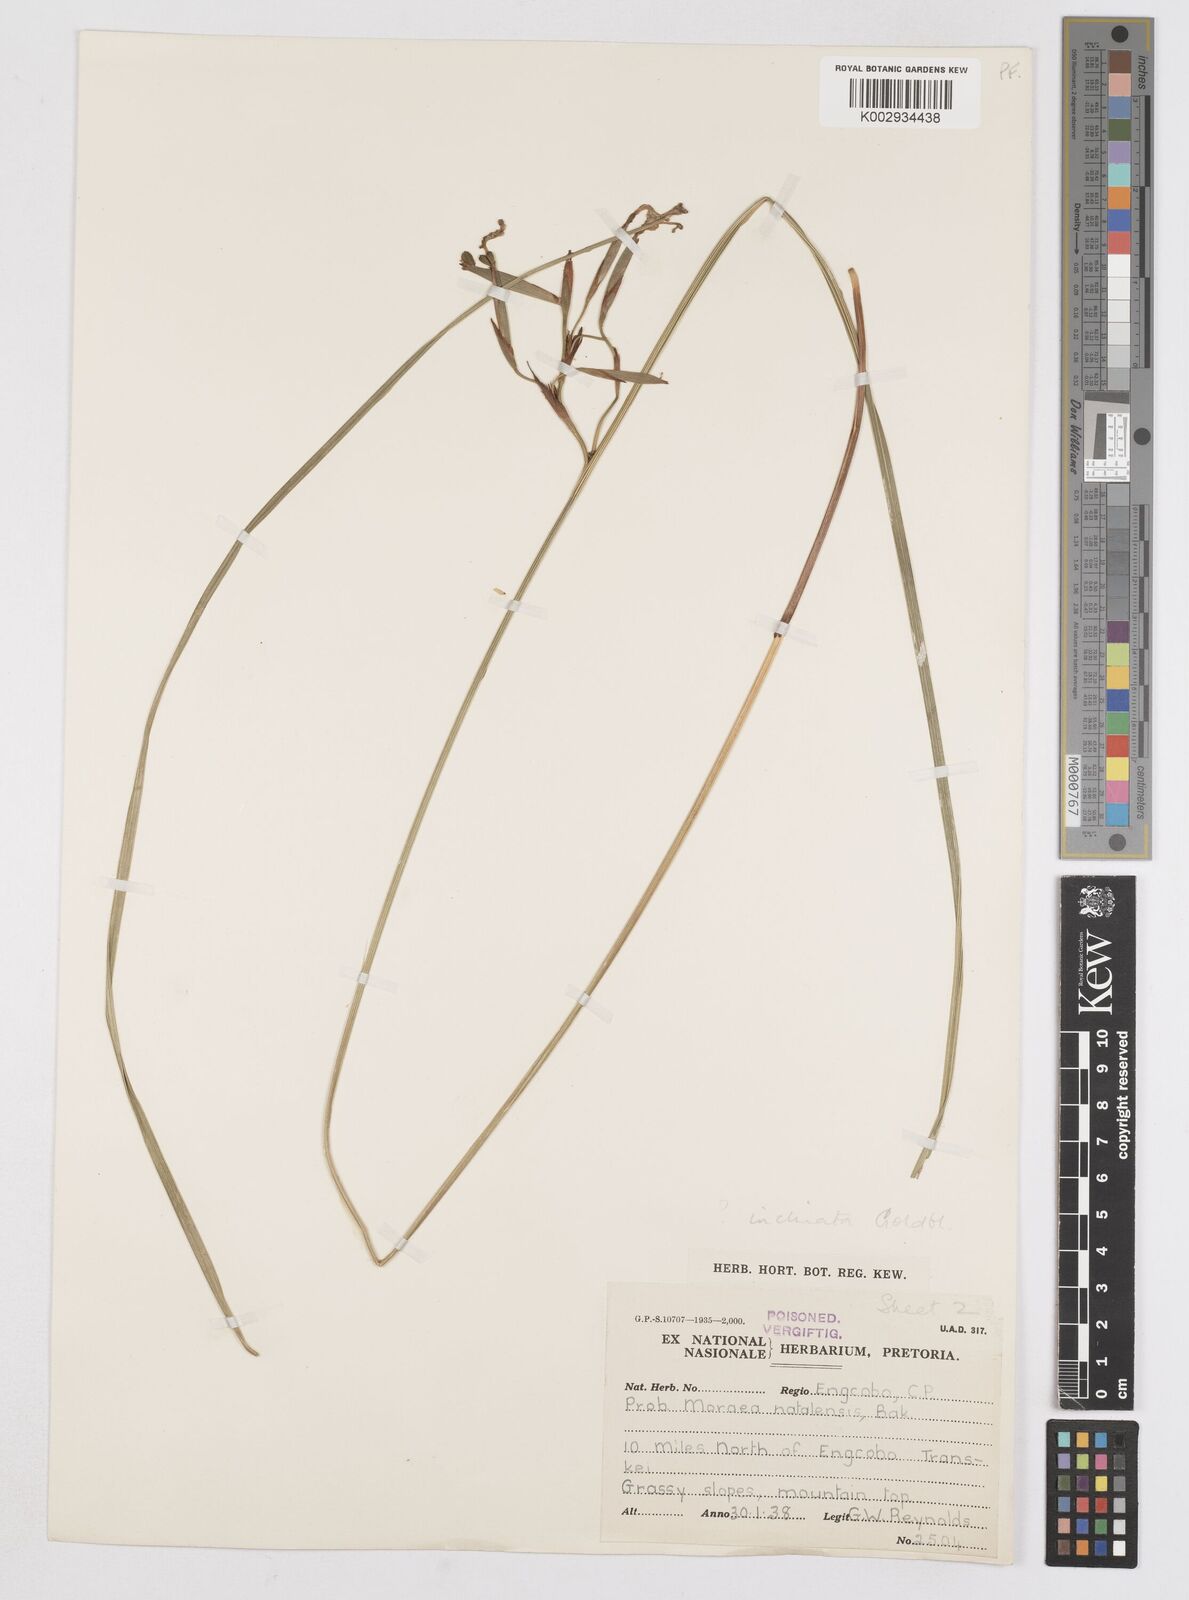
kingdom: Plantae
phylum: Tracheophyta
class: Liliopsida
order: Asparagales
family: Iridaceae
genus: Moraea
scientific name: Moraea inclinata
